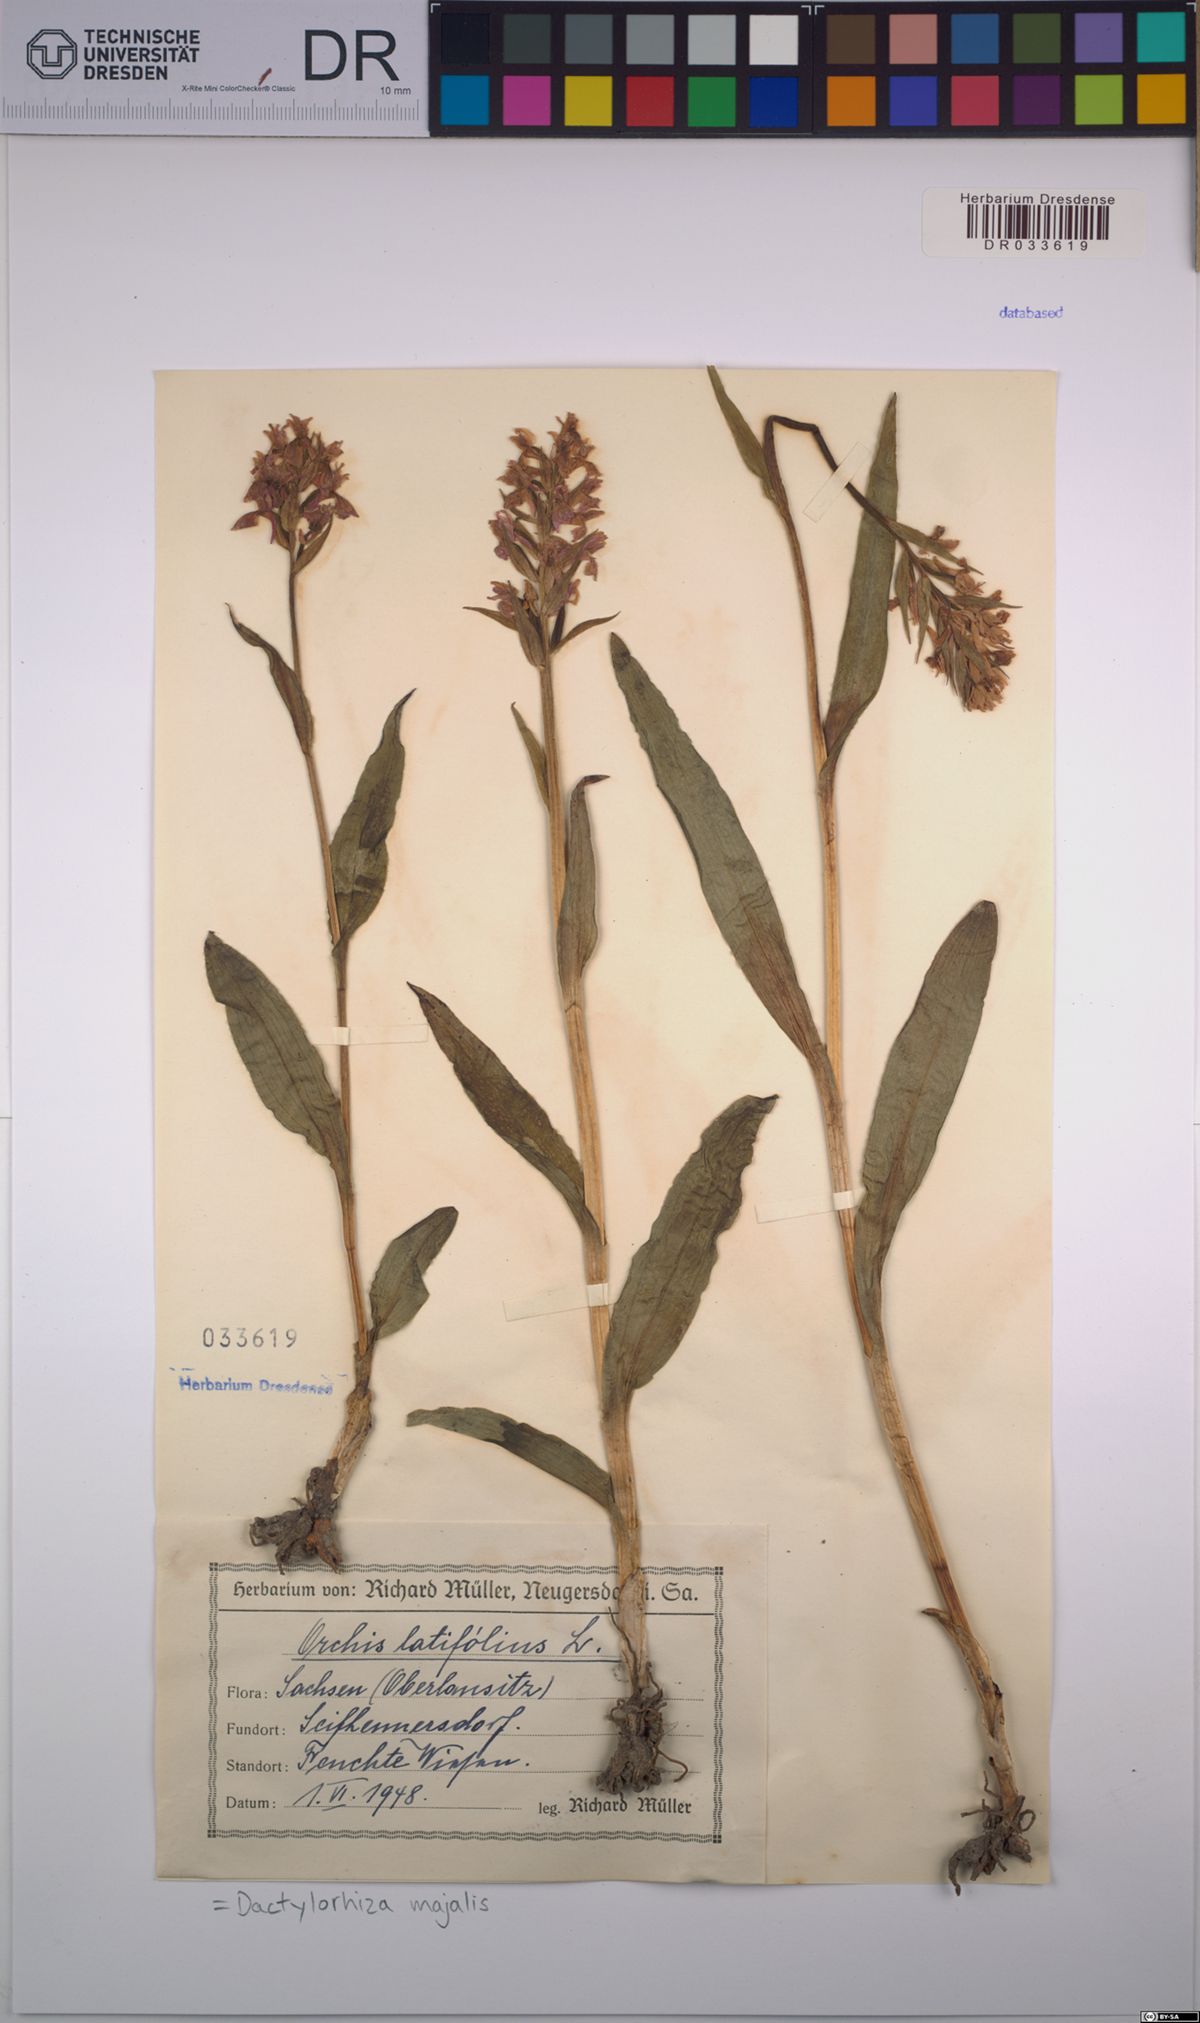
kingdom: Plantae
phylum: Tracheophyta
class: Liliopsida
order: Asparagales
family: Orchidaceae
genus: Dactylorhiza
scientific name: Dactylorhiza majalis
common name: Marsh orchid
